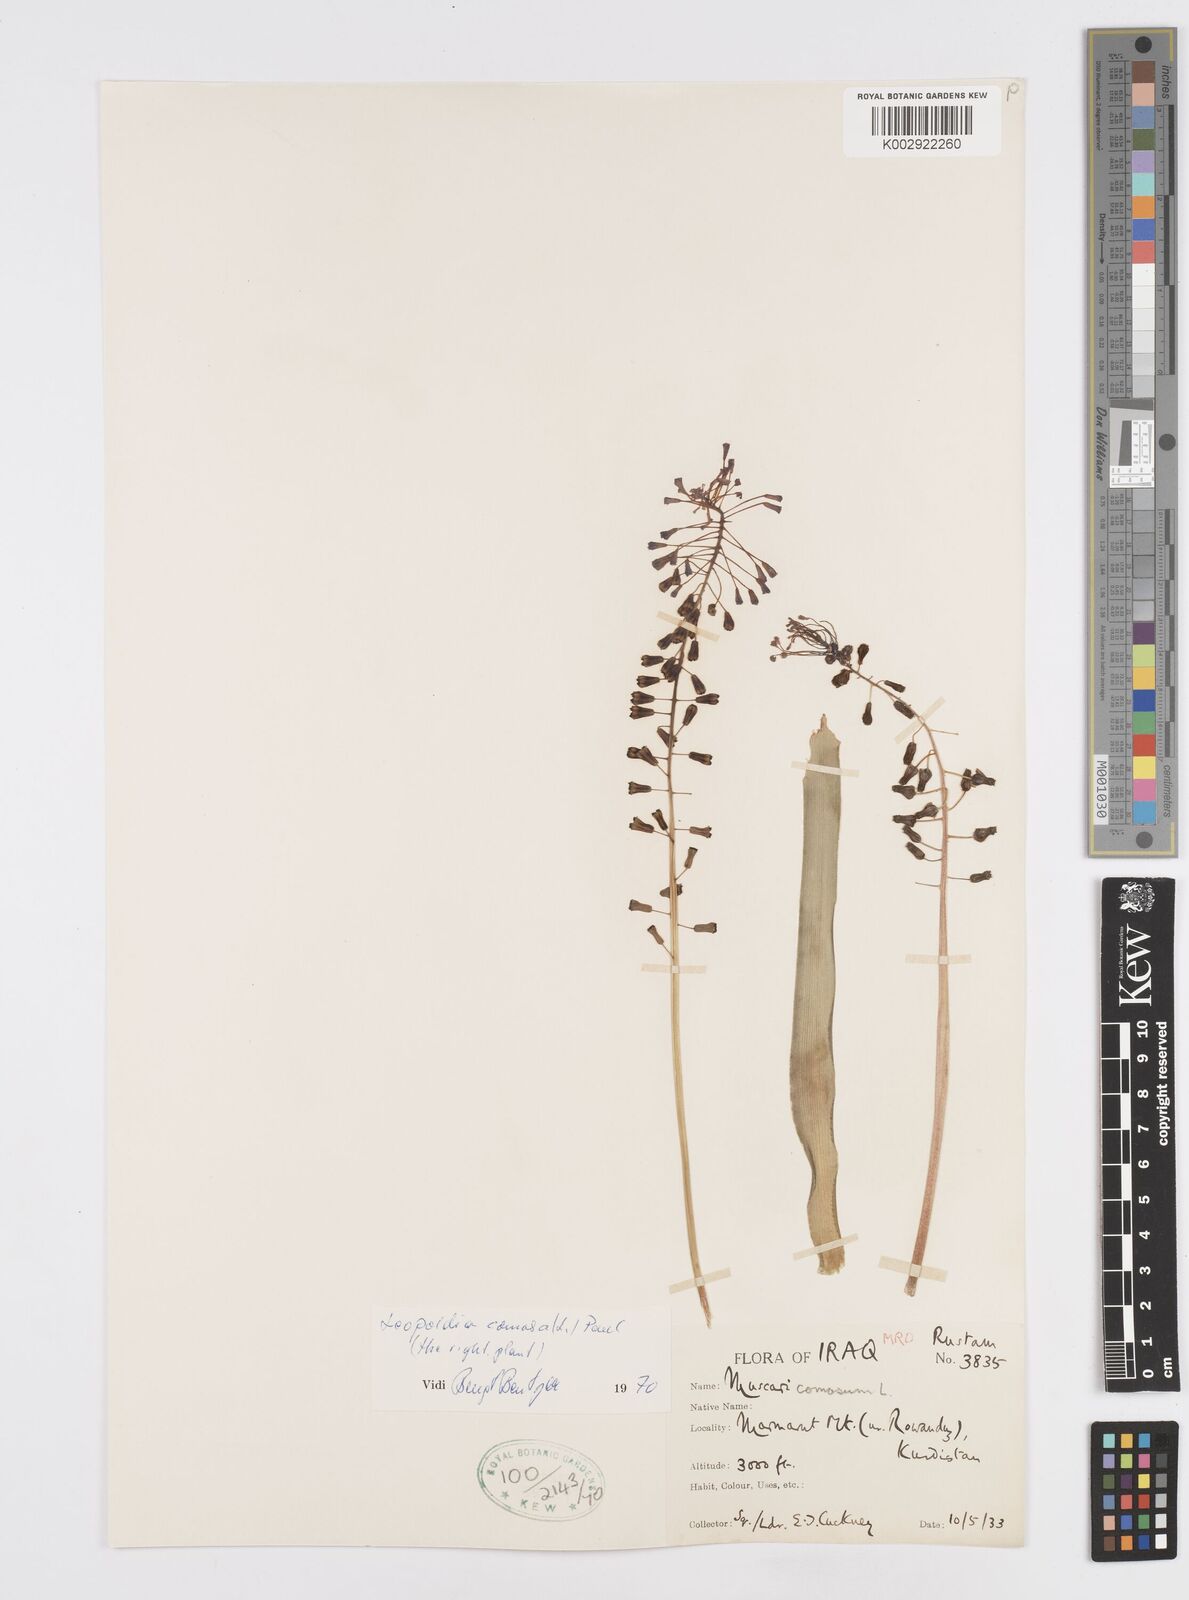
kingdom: Plantae
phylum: Tracheophyta
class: Liliopsida
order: Asparagales
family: Asparagaceae
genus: Muscari
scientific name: Muscari comosum
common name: Tassel hyacinth
